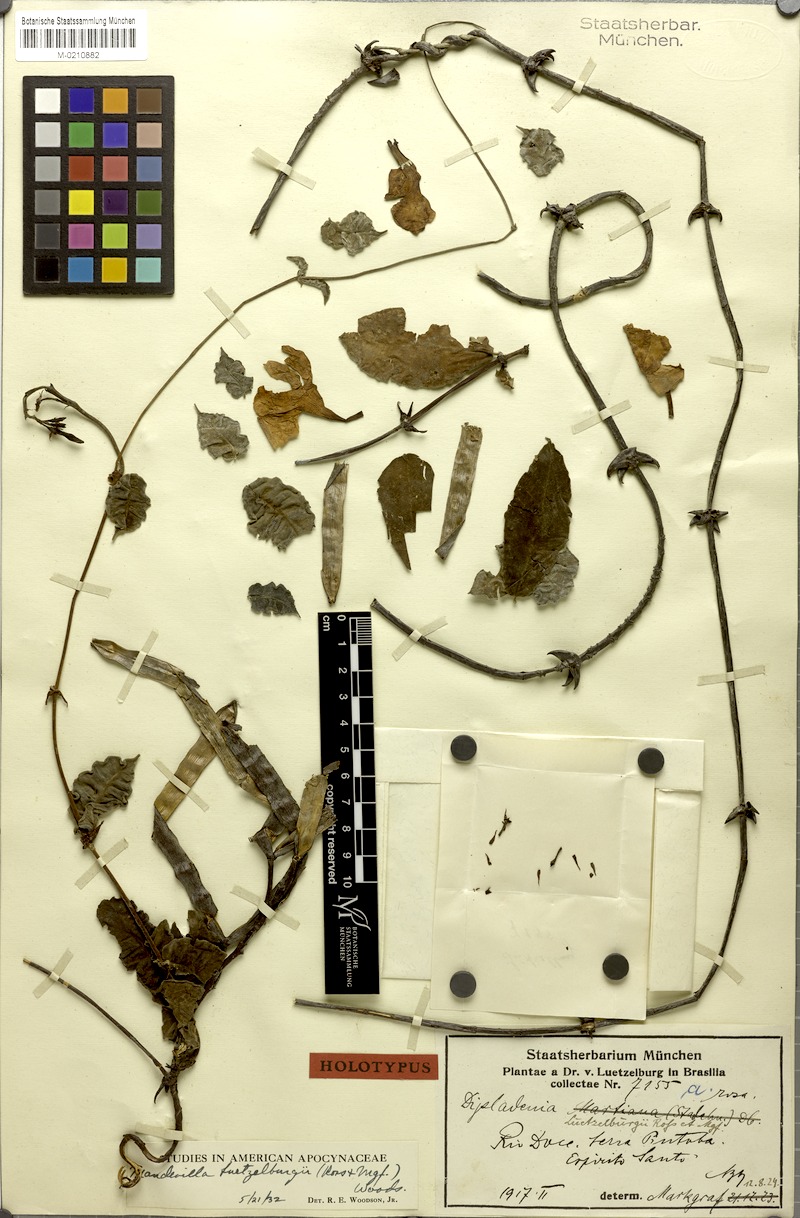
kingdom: Plantae
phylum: Tracheophyta
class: Magnoliopsida
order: Gentianales
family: Apocynaceae
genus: Mandevilla
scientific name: Mandevilla luetzelburgii
